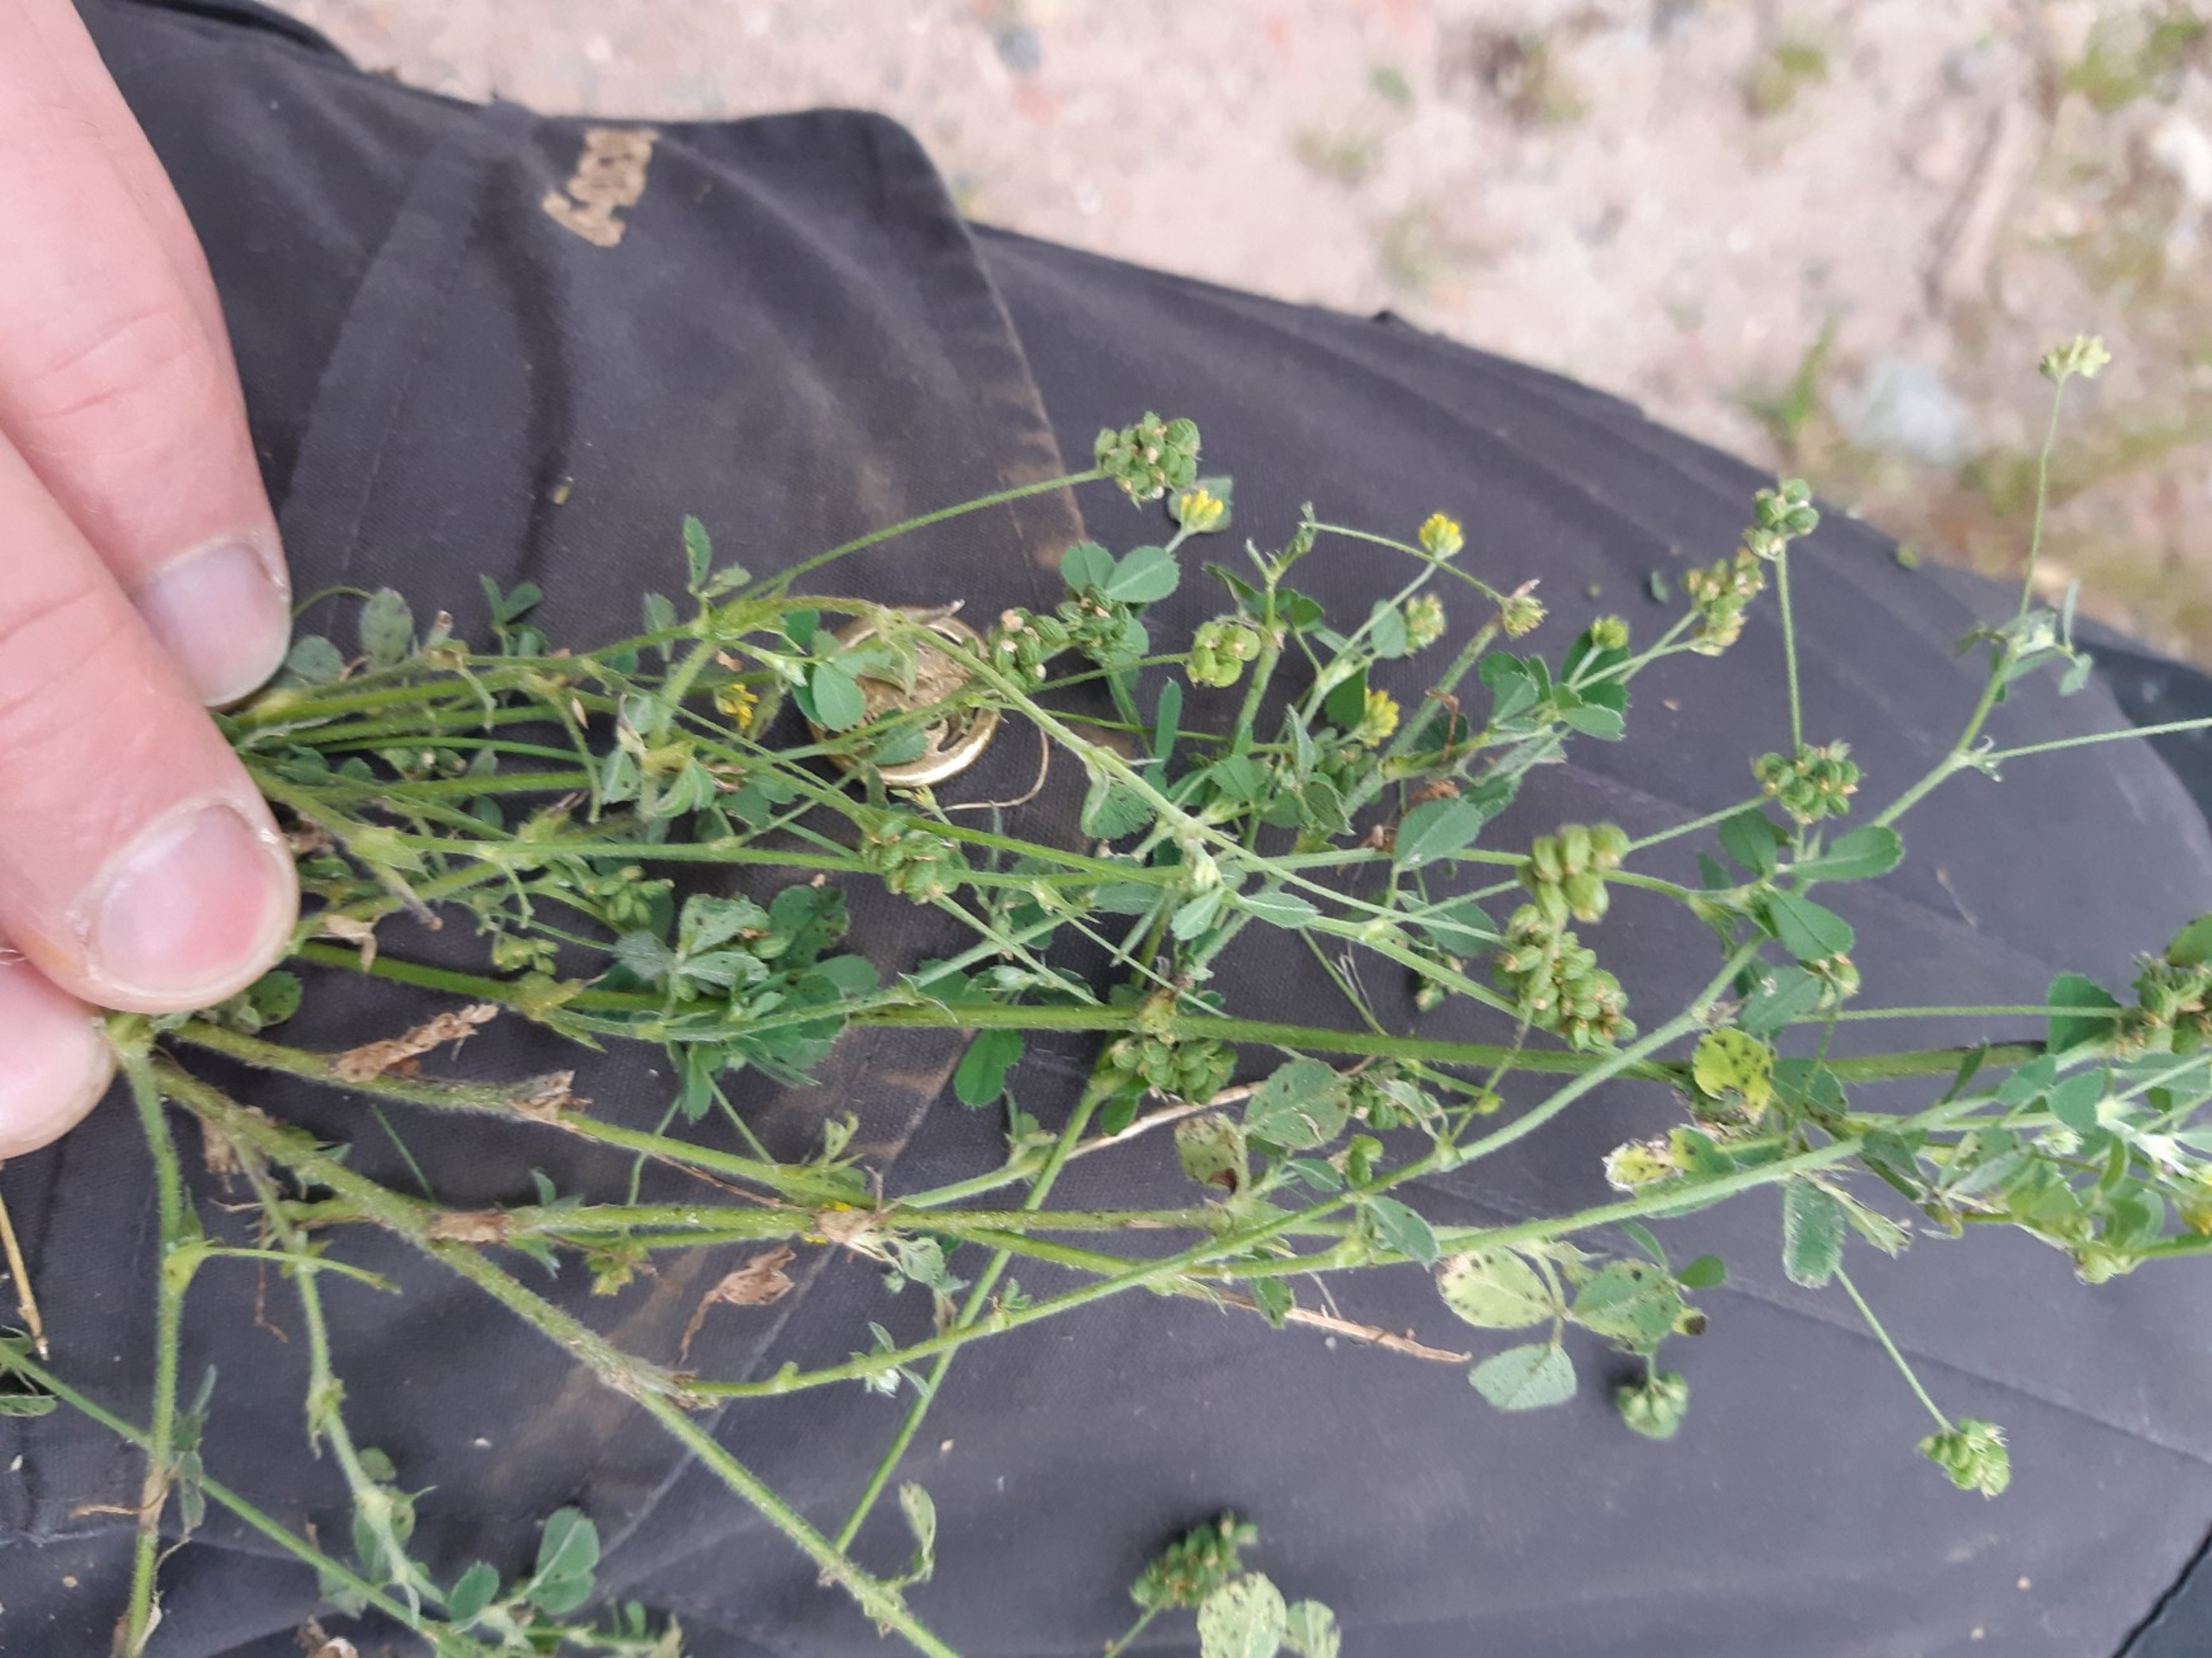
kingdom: Plantae
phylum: Tracheophyta
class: Magnoliopsida
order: Fabales
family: Fabaceae
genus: Medicago
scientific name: Medicago lupulina
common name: Humle-sneglebælg
